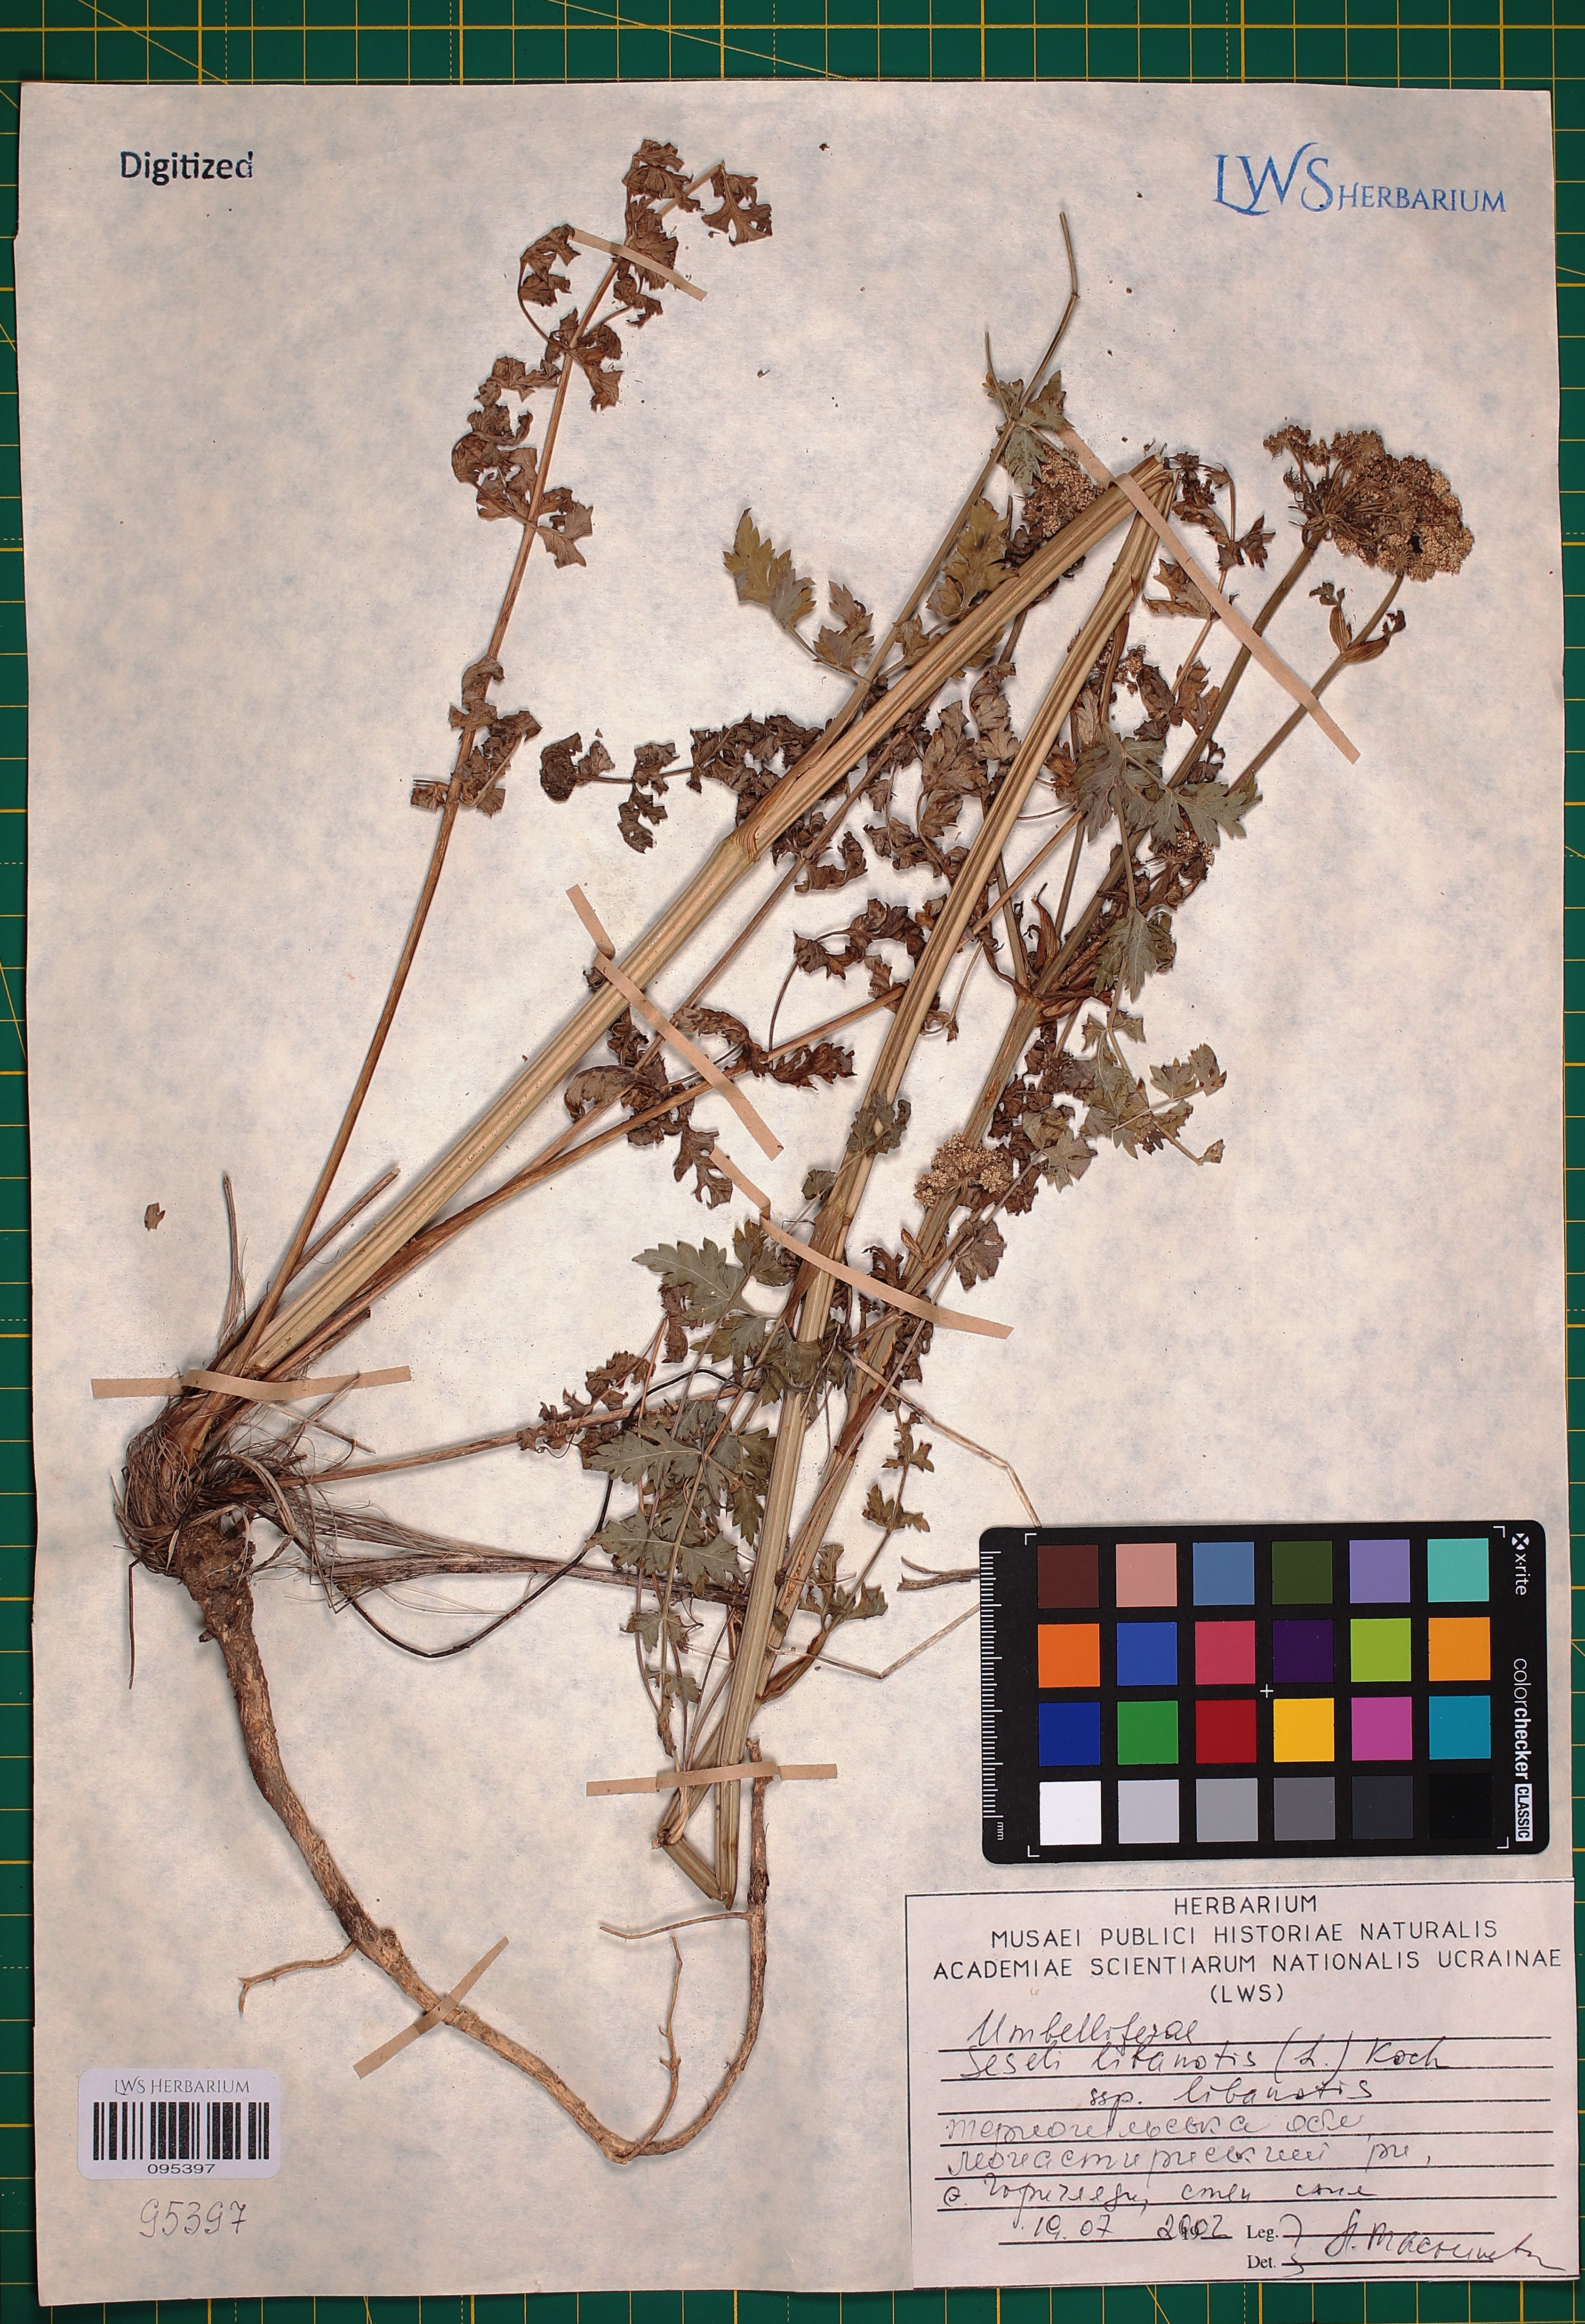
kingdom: Plantae
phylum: Tracheophyta
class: Magnoliopsida
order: Apiales
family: Apiaceae
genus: Seseli
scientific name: Seseli libanotis
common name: Mooncarrot
